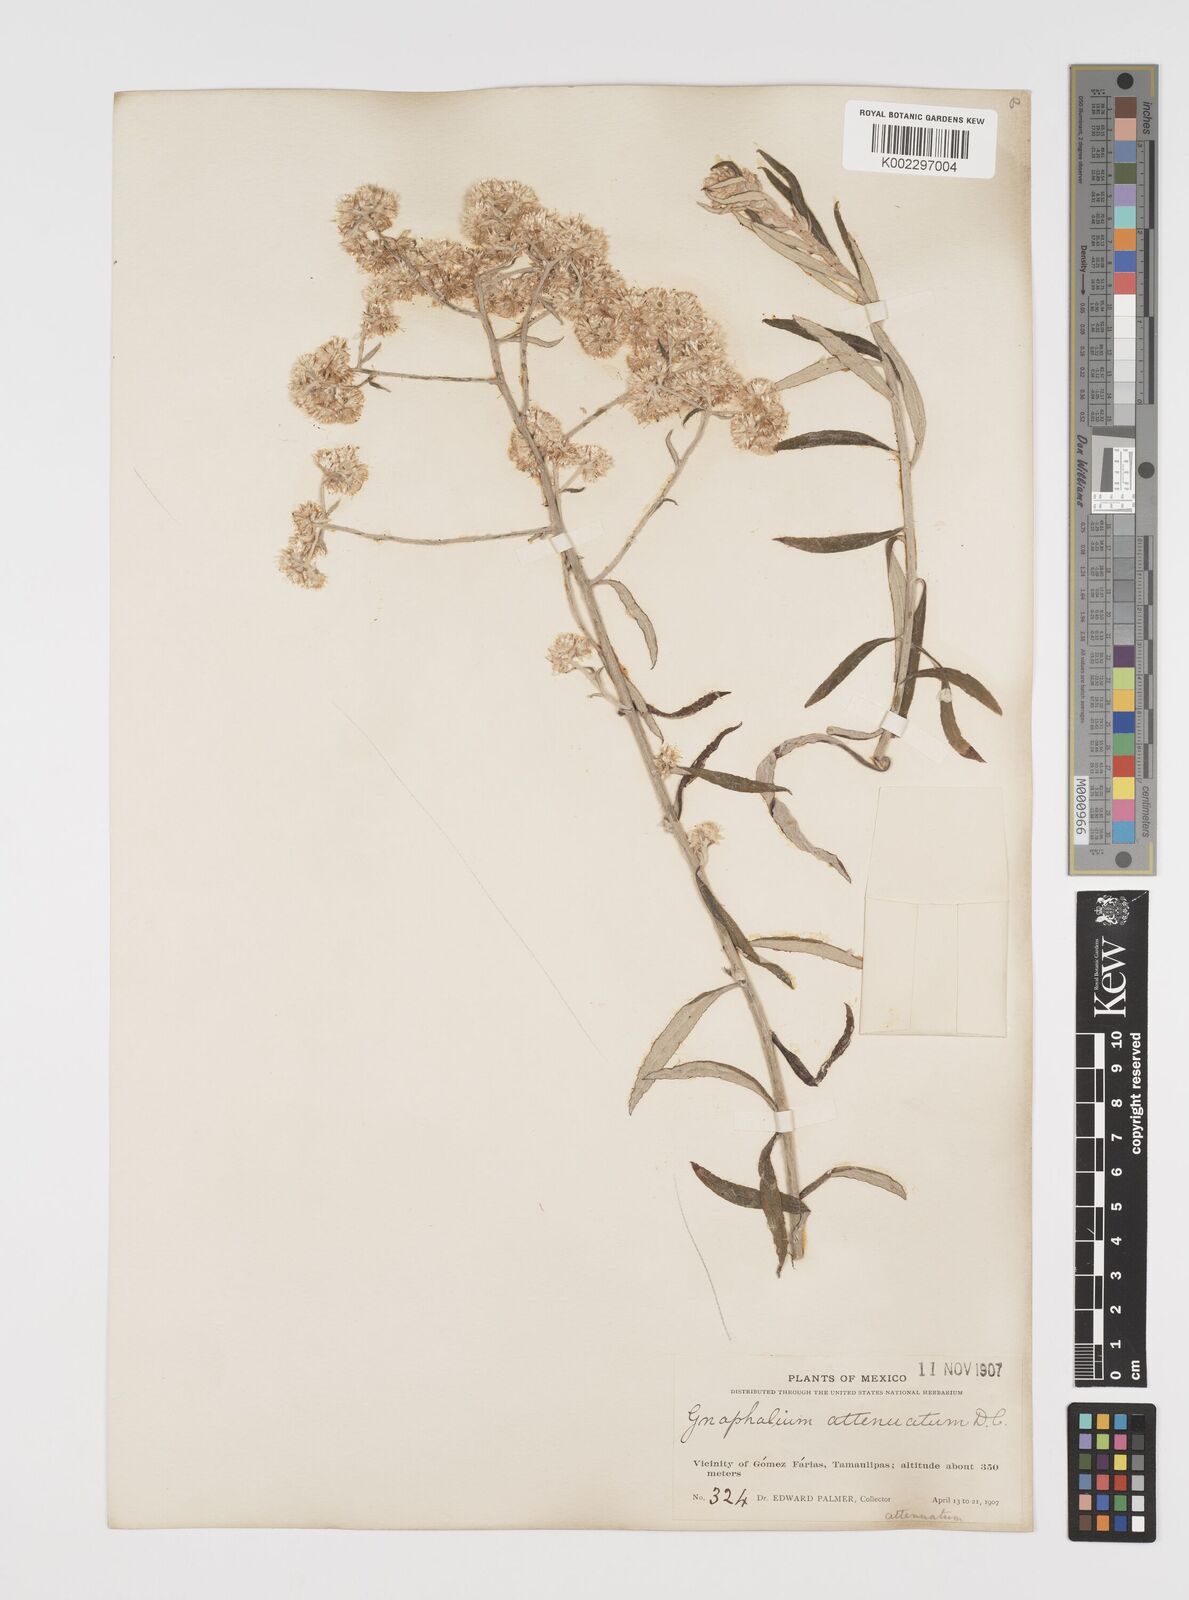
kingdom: Plantae
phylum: Tracheophyta
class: Magnoliopsida
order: Asterales
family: Asteraceae
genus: Pseudognaphalium
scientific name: Pseudognaphalium attenuatum
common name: Tapered cudweed
